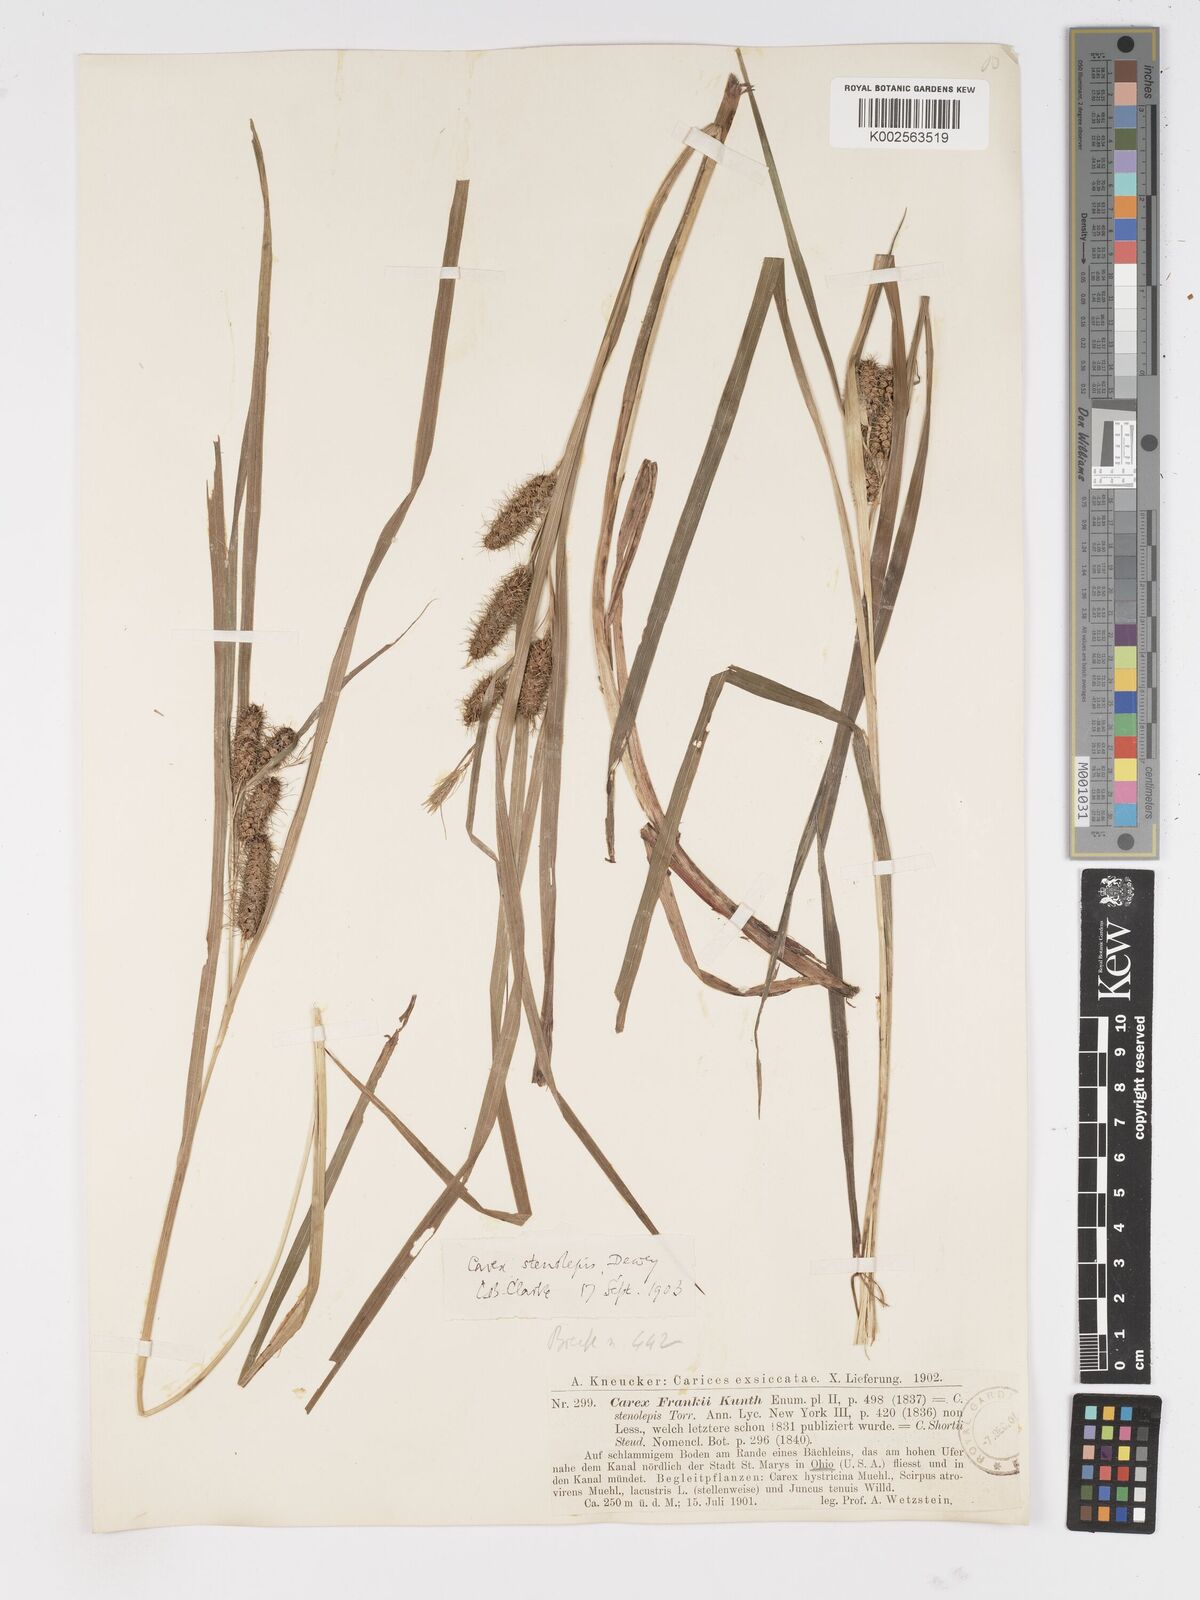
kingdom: Plantae
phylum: Tracheophyta
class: Liliopsida
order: Poales
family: Cyperaceae
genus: Carex
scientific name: Carex frankii
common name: Frank's sedge
